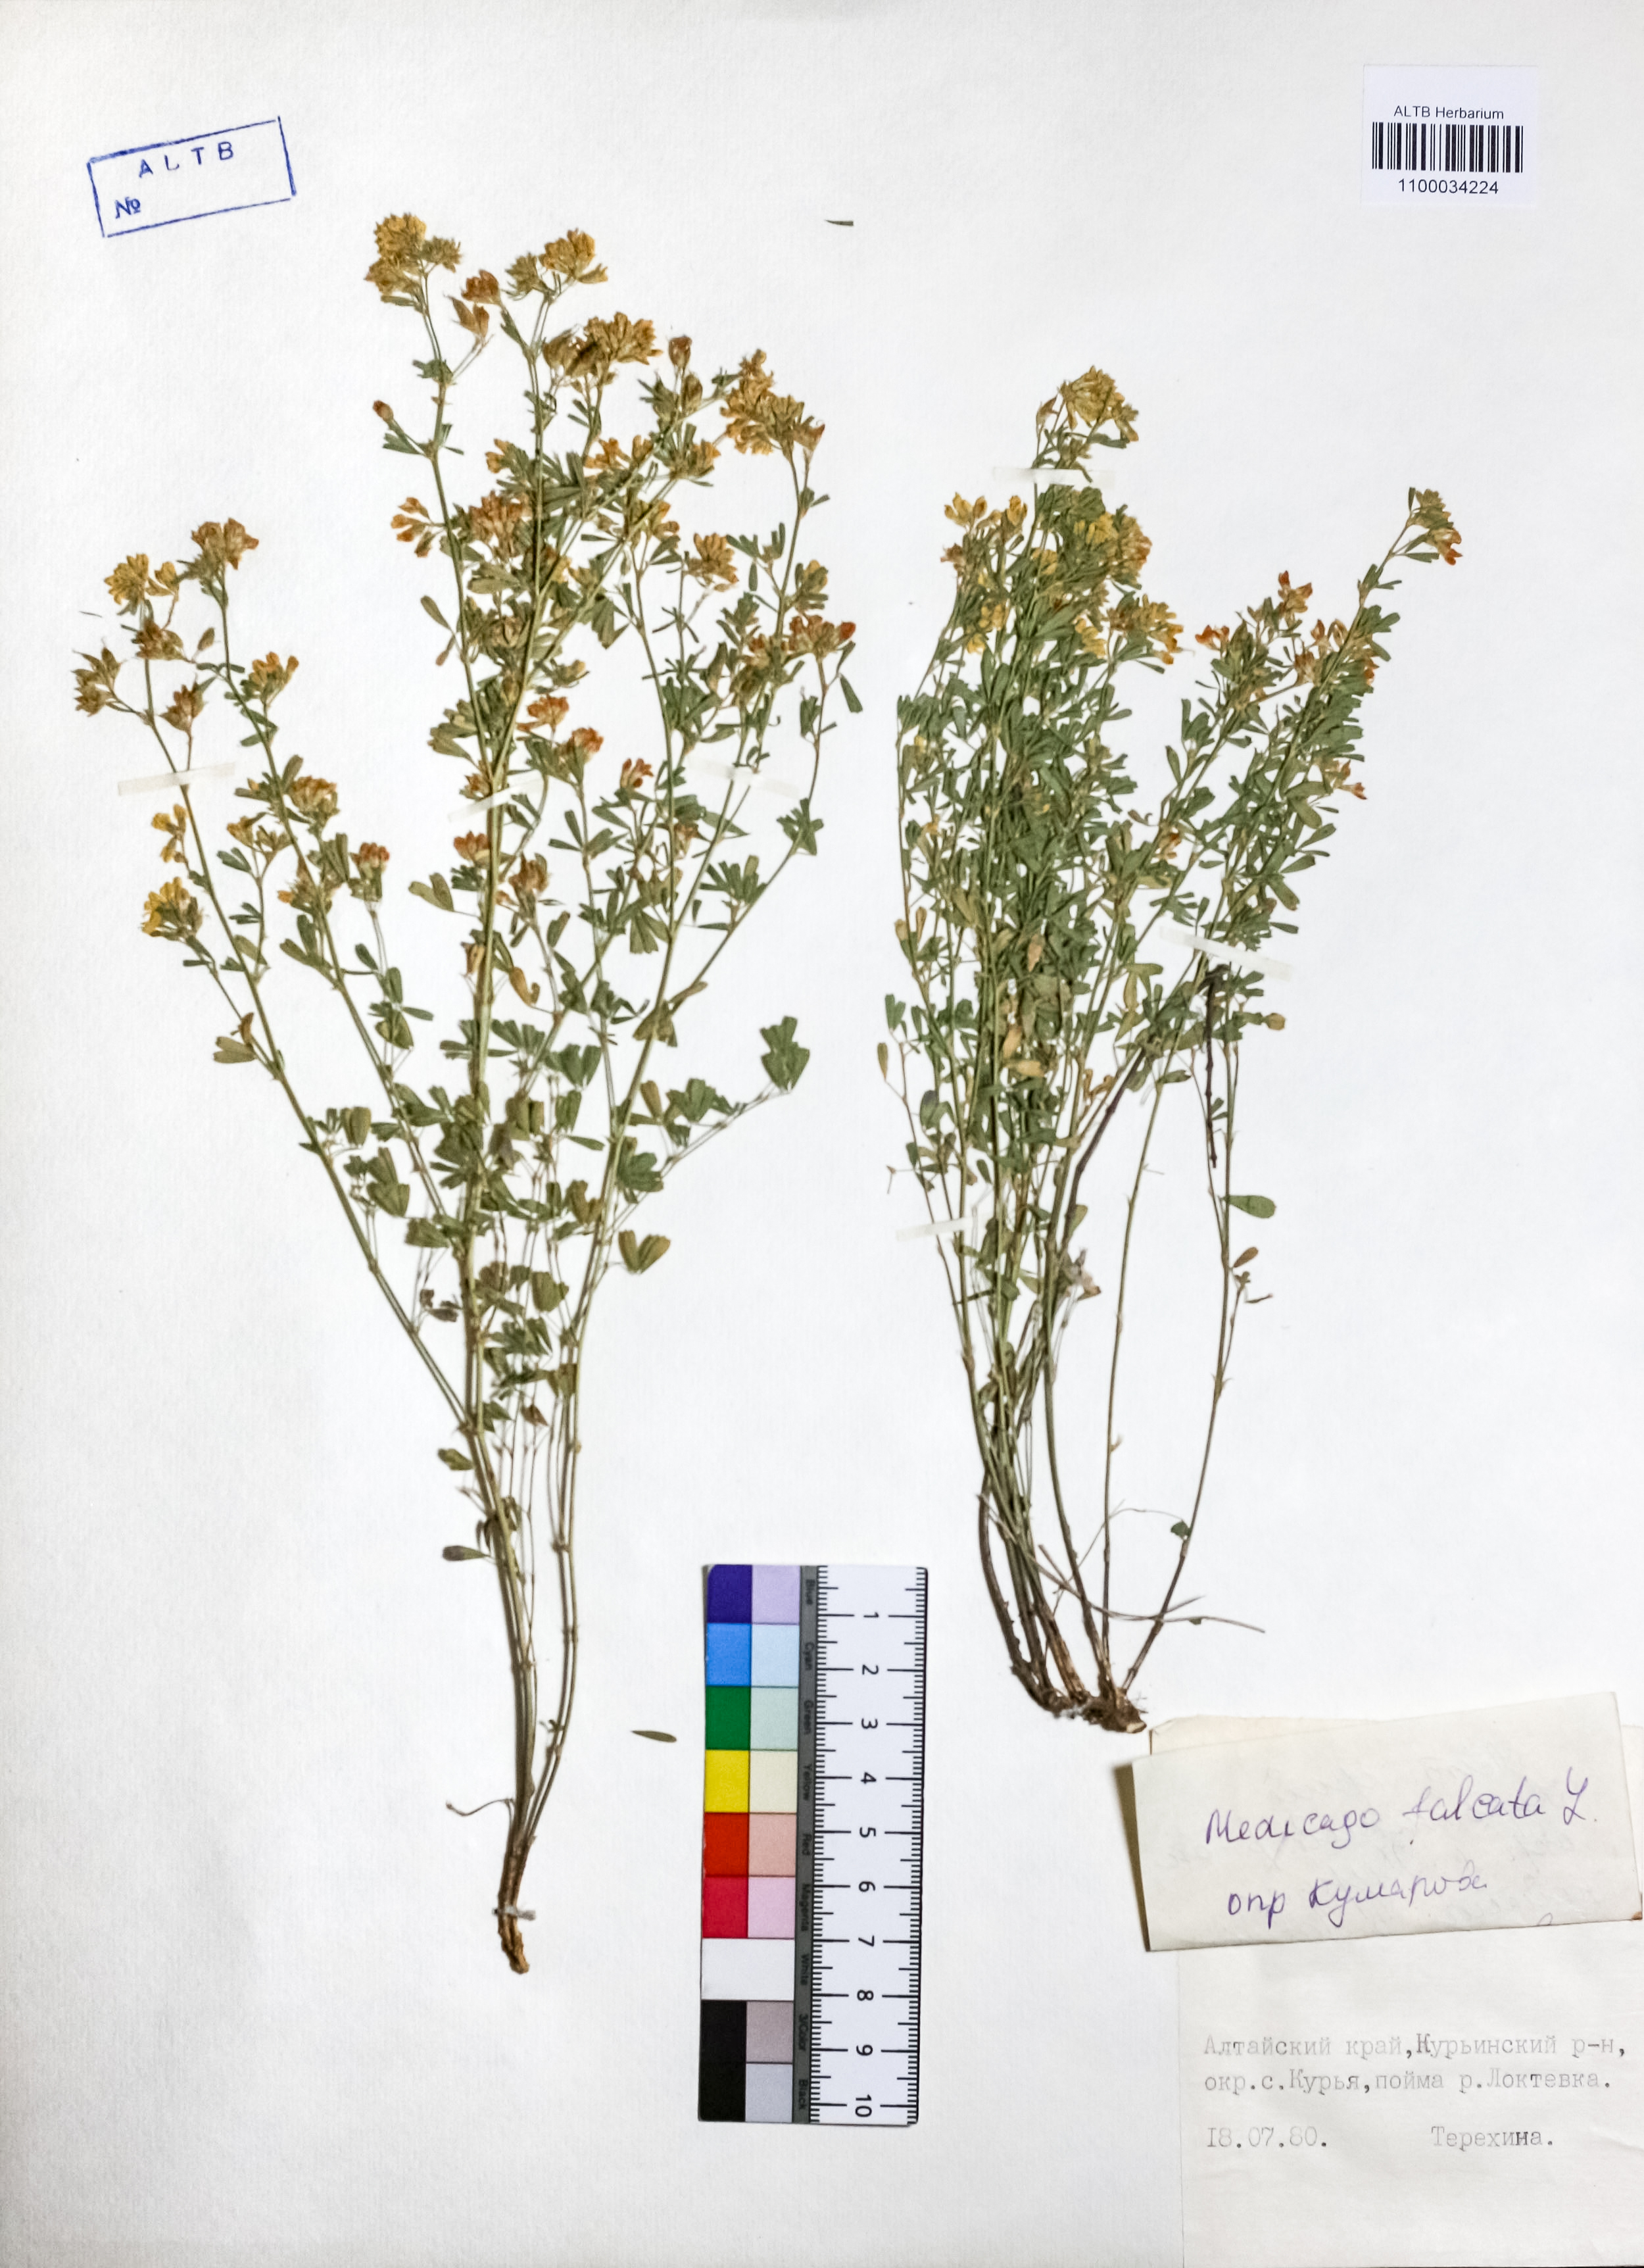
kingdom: Plantae
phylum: Tracheophyta
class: Magnoliopsida
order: Fabales
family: Fabaceae
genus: Medicago
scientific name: Medicago falcata
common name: Sickle medick
